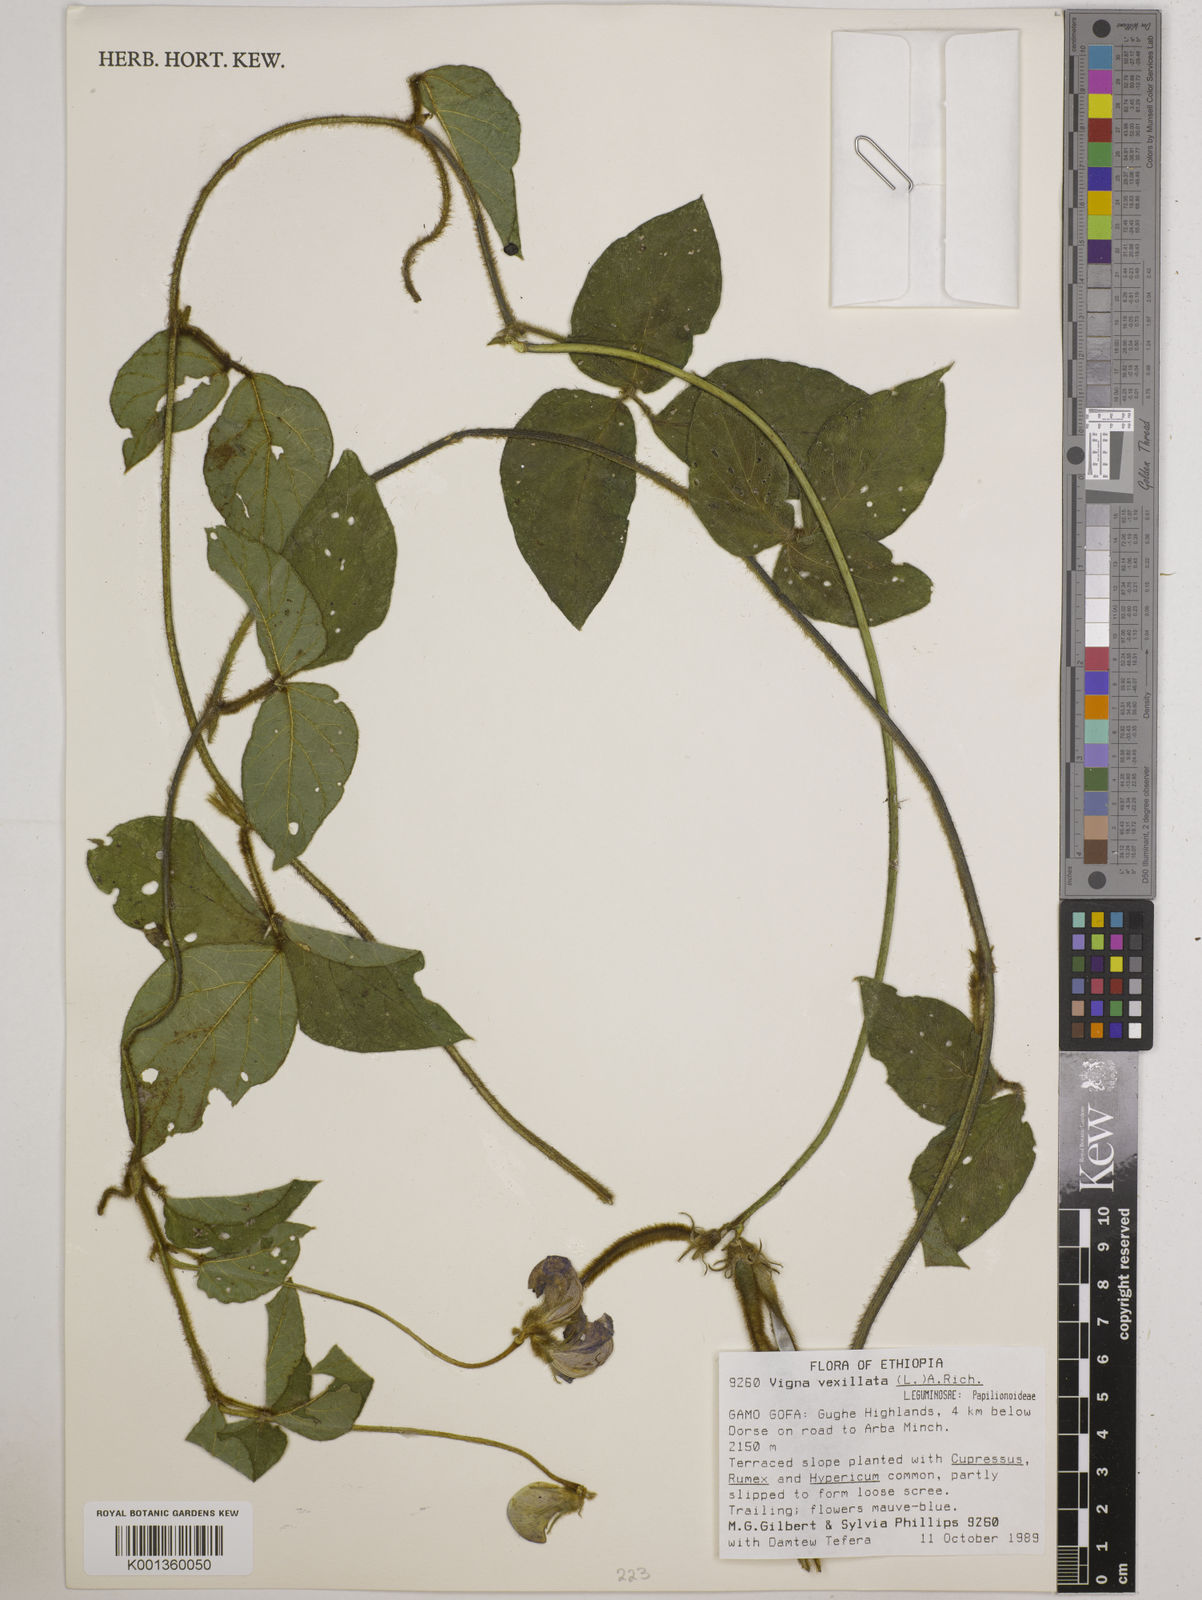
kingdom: Plantae
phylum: Tracheophyta
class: Magnoliopsida
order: Fabales
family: Fabaceae
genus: Vigna
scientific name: Vigna vexillata
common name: Zombi pea
